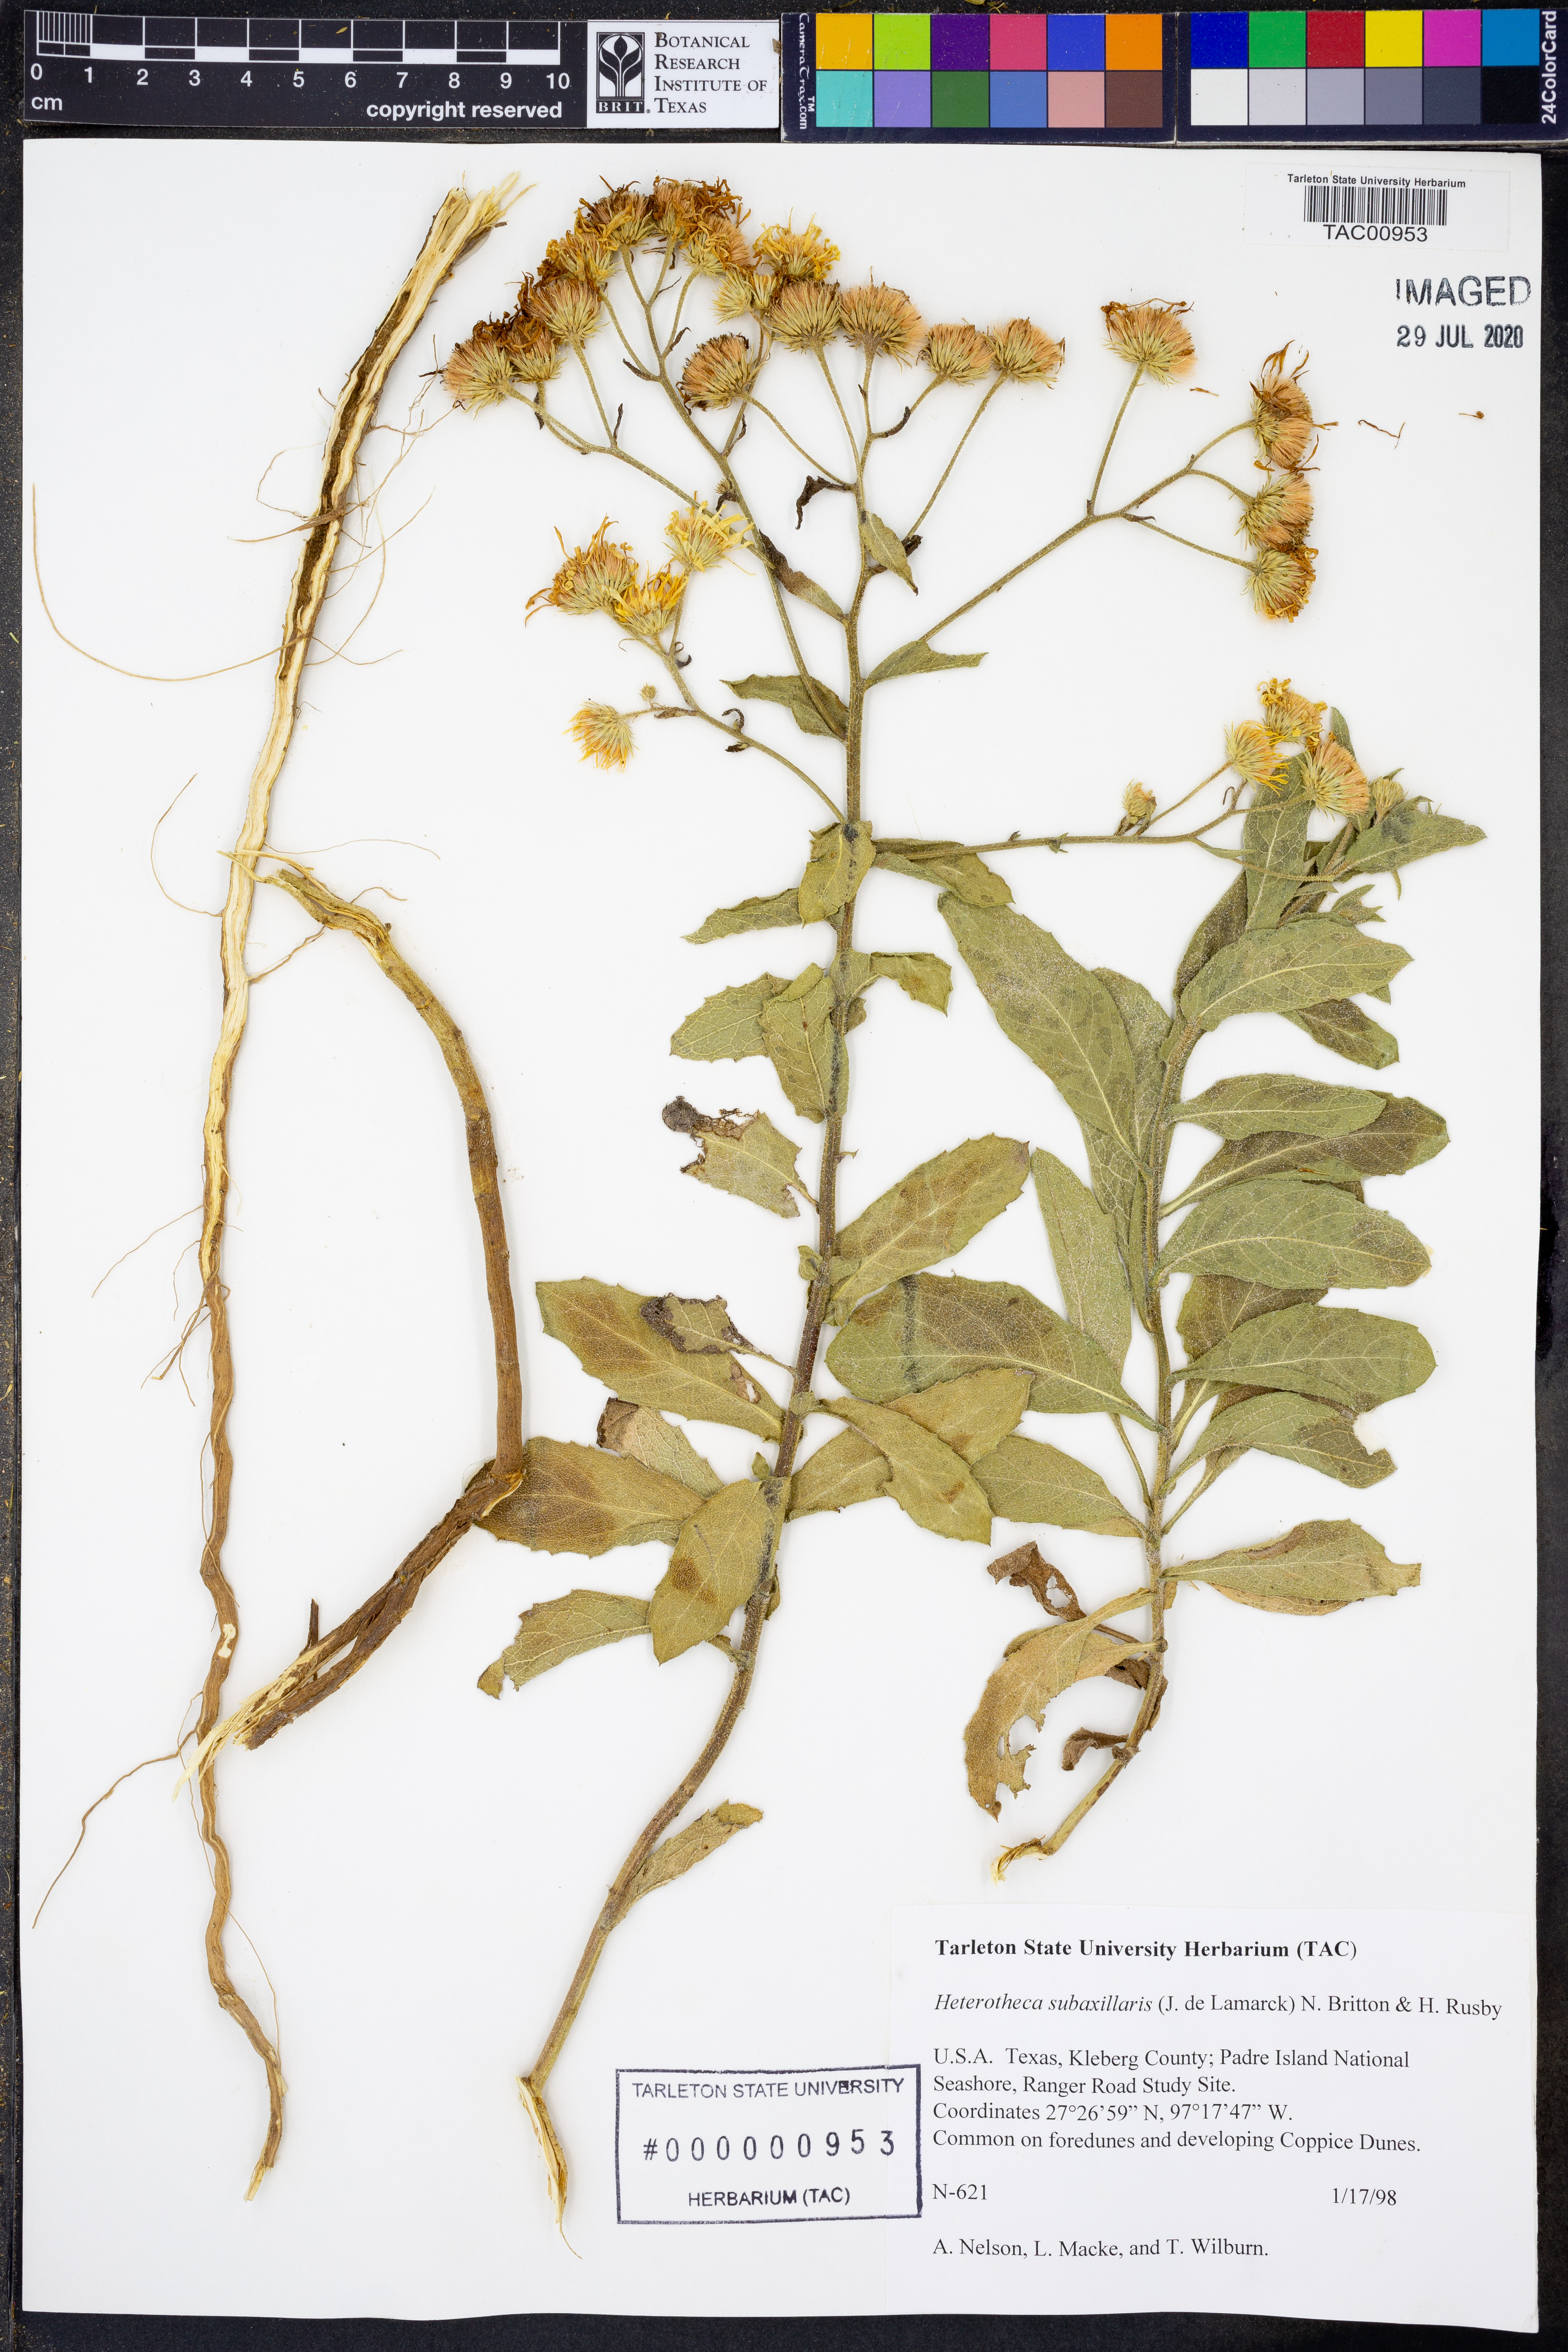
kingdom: Plantae
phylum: Tracheophyta
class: Magnoliopsida
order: Asterales
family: Asteraceae
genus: Heterotheca
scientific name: Heterotheca subaxillaris
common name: Camphorweed
